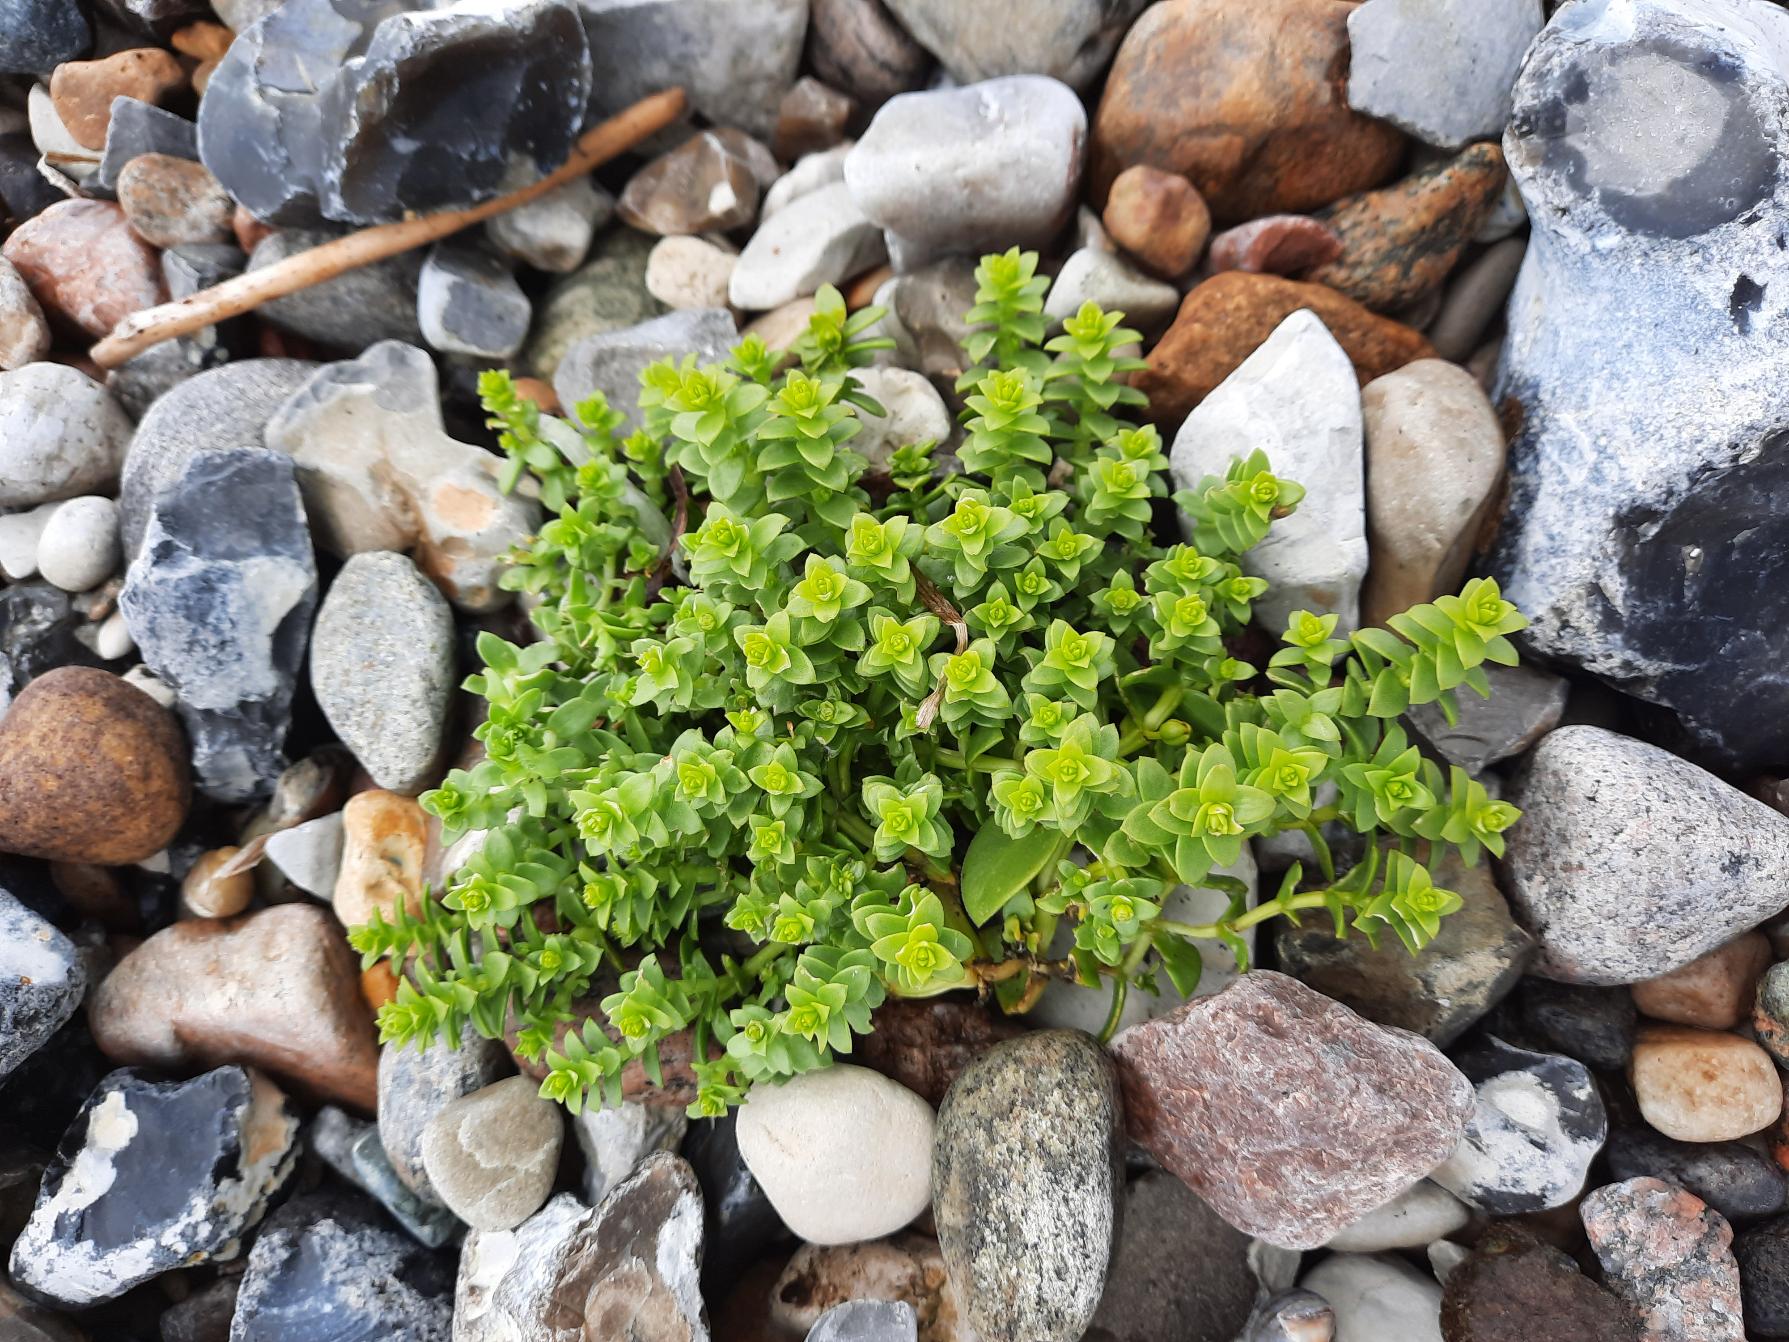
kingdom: Plantae
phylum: Tracheophyta
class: Magnoliopsida
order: Caryophyllales
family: Caryophyllaceae
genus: Honckenya
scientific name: Honckenya peploides
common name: Strandarve
